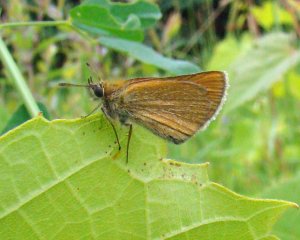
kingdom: Animalia
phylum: Arthropoda
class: Insecta
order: Lepidoptera
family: Hesperiidae
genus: Thymelicus
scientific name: Thymelicus lineola
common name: European Skipper
